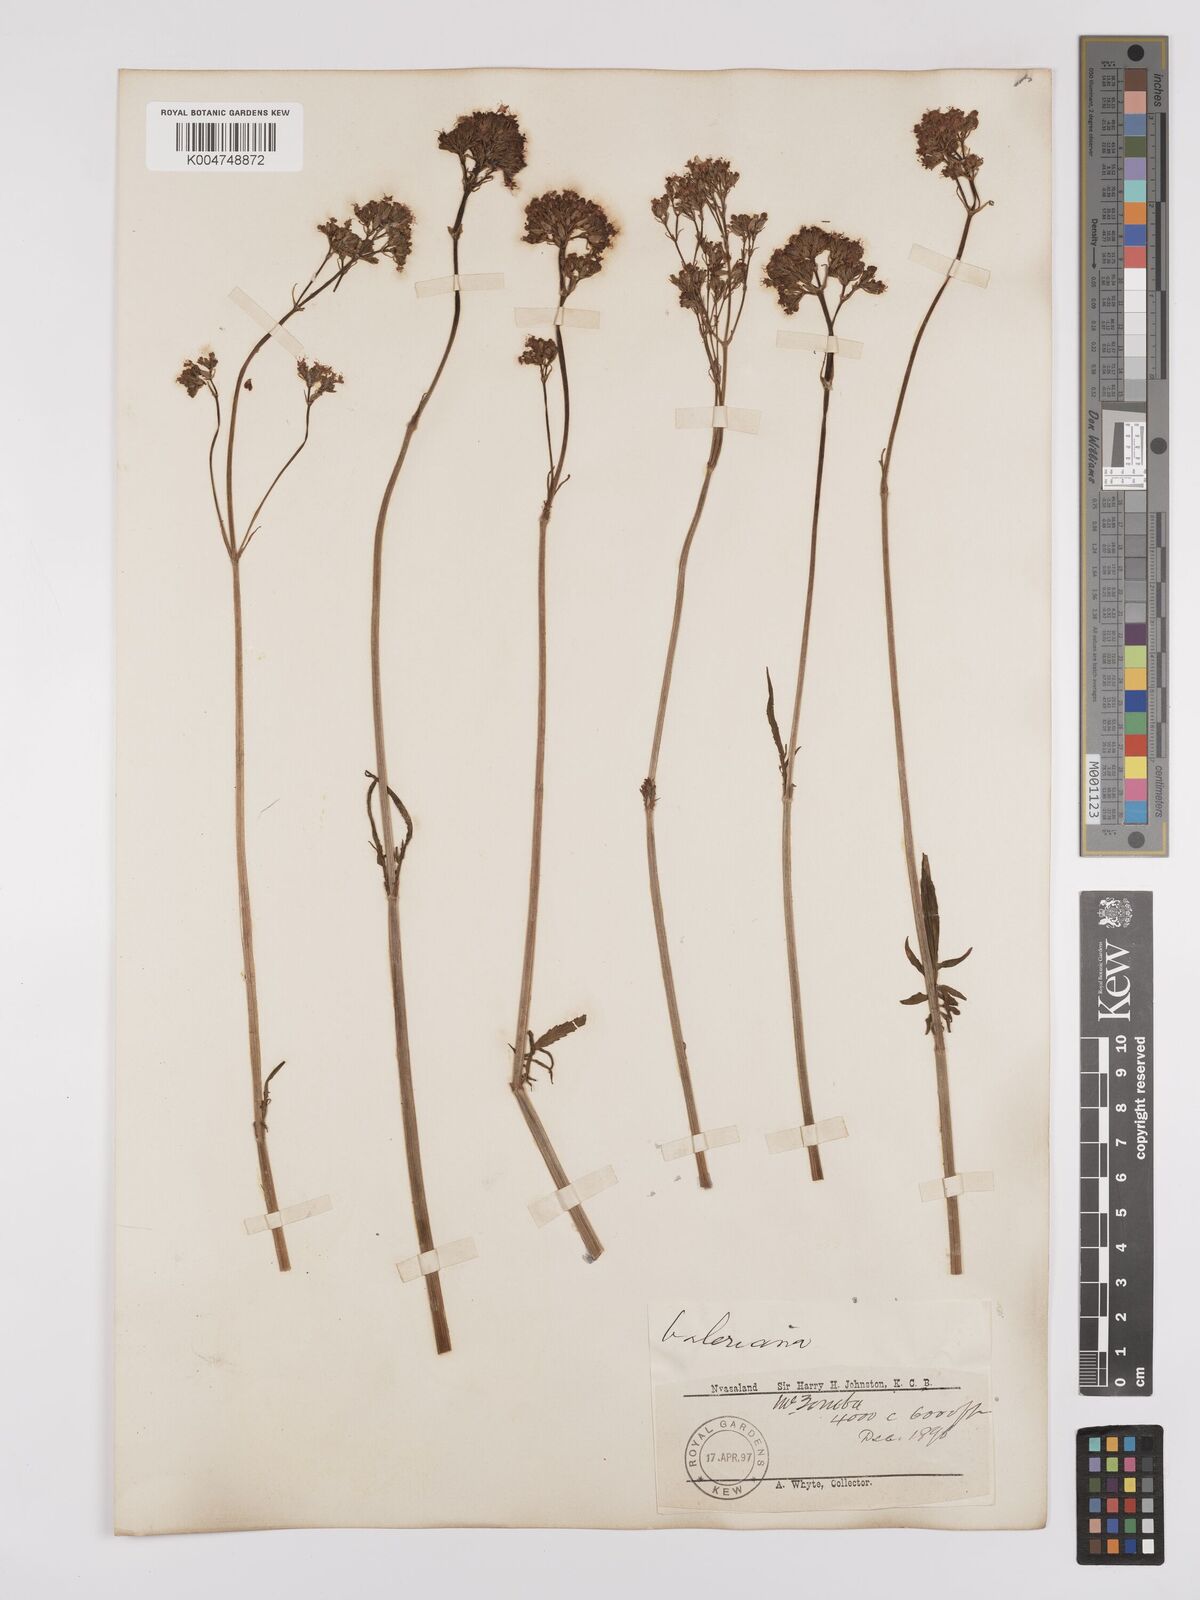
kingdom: Plantae
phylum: Tracheophyta
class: Magnoliopsida
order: Dipsacales
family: Caprifoliaceae
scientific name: Caprifoliaceae
